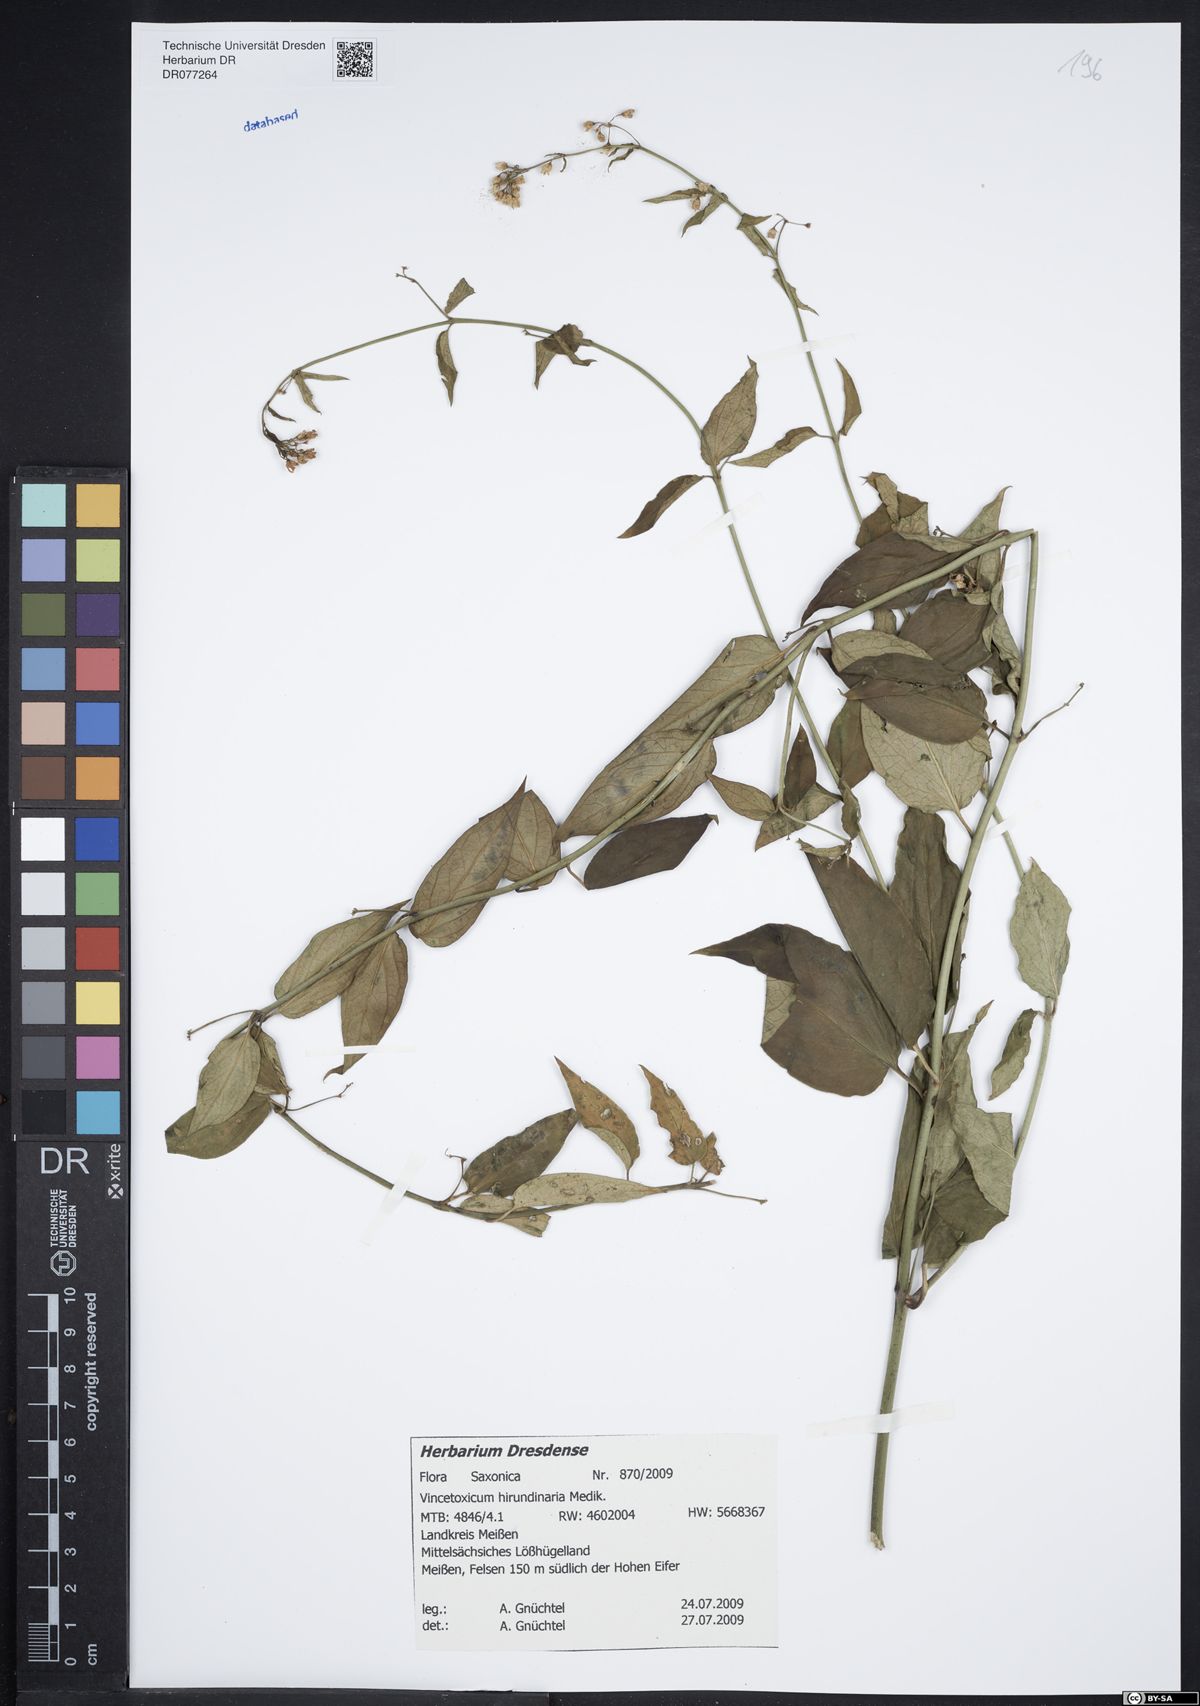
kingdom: Plantae
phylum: Tracheophyta
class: Magnoliopsida
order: Gentianales
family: Apocynaceae
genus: Vincetoxicum
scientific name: Vincetoxicum hirundinaria
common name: White swallowwort
